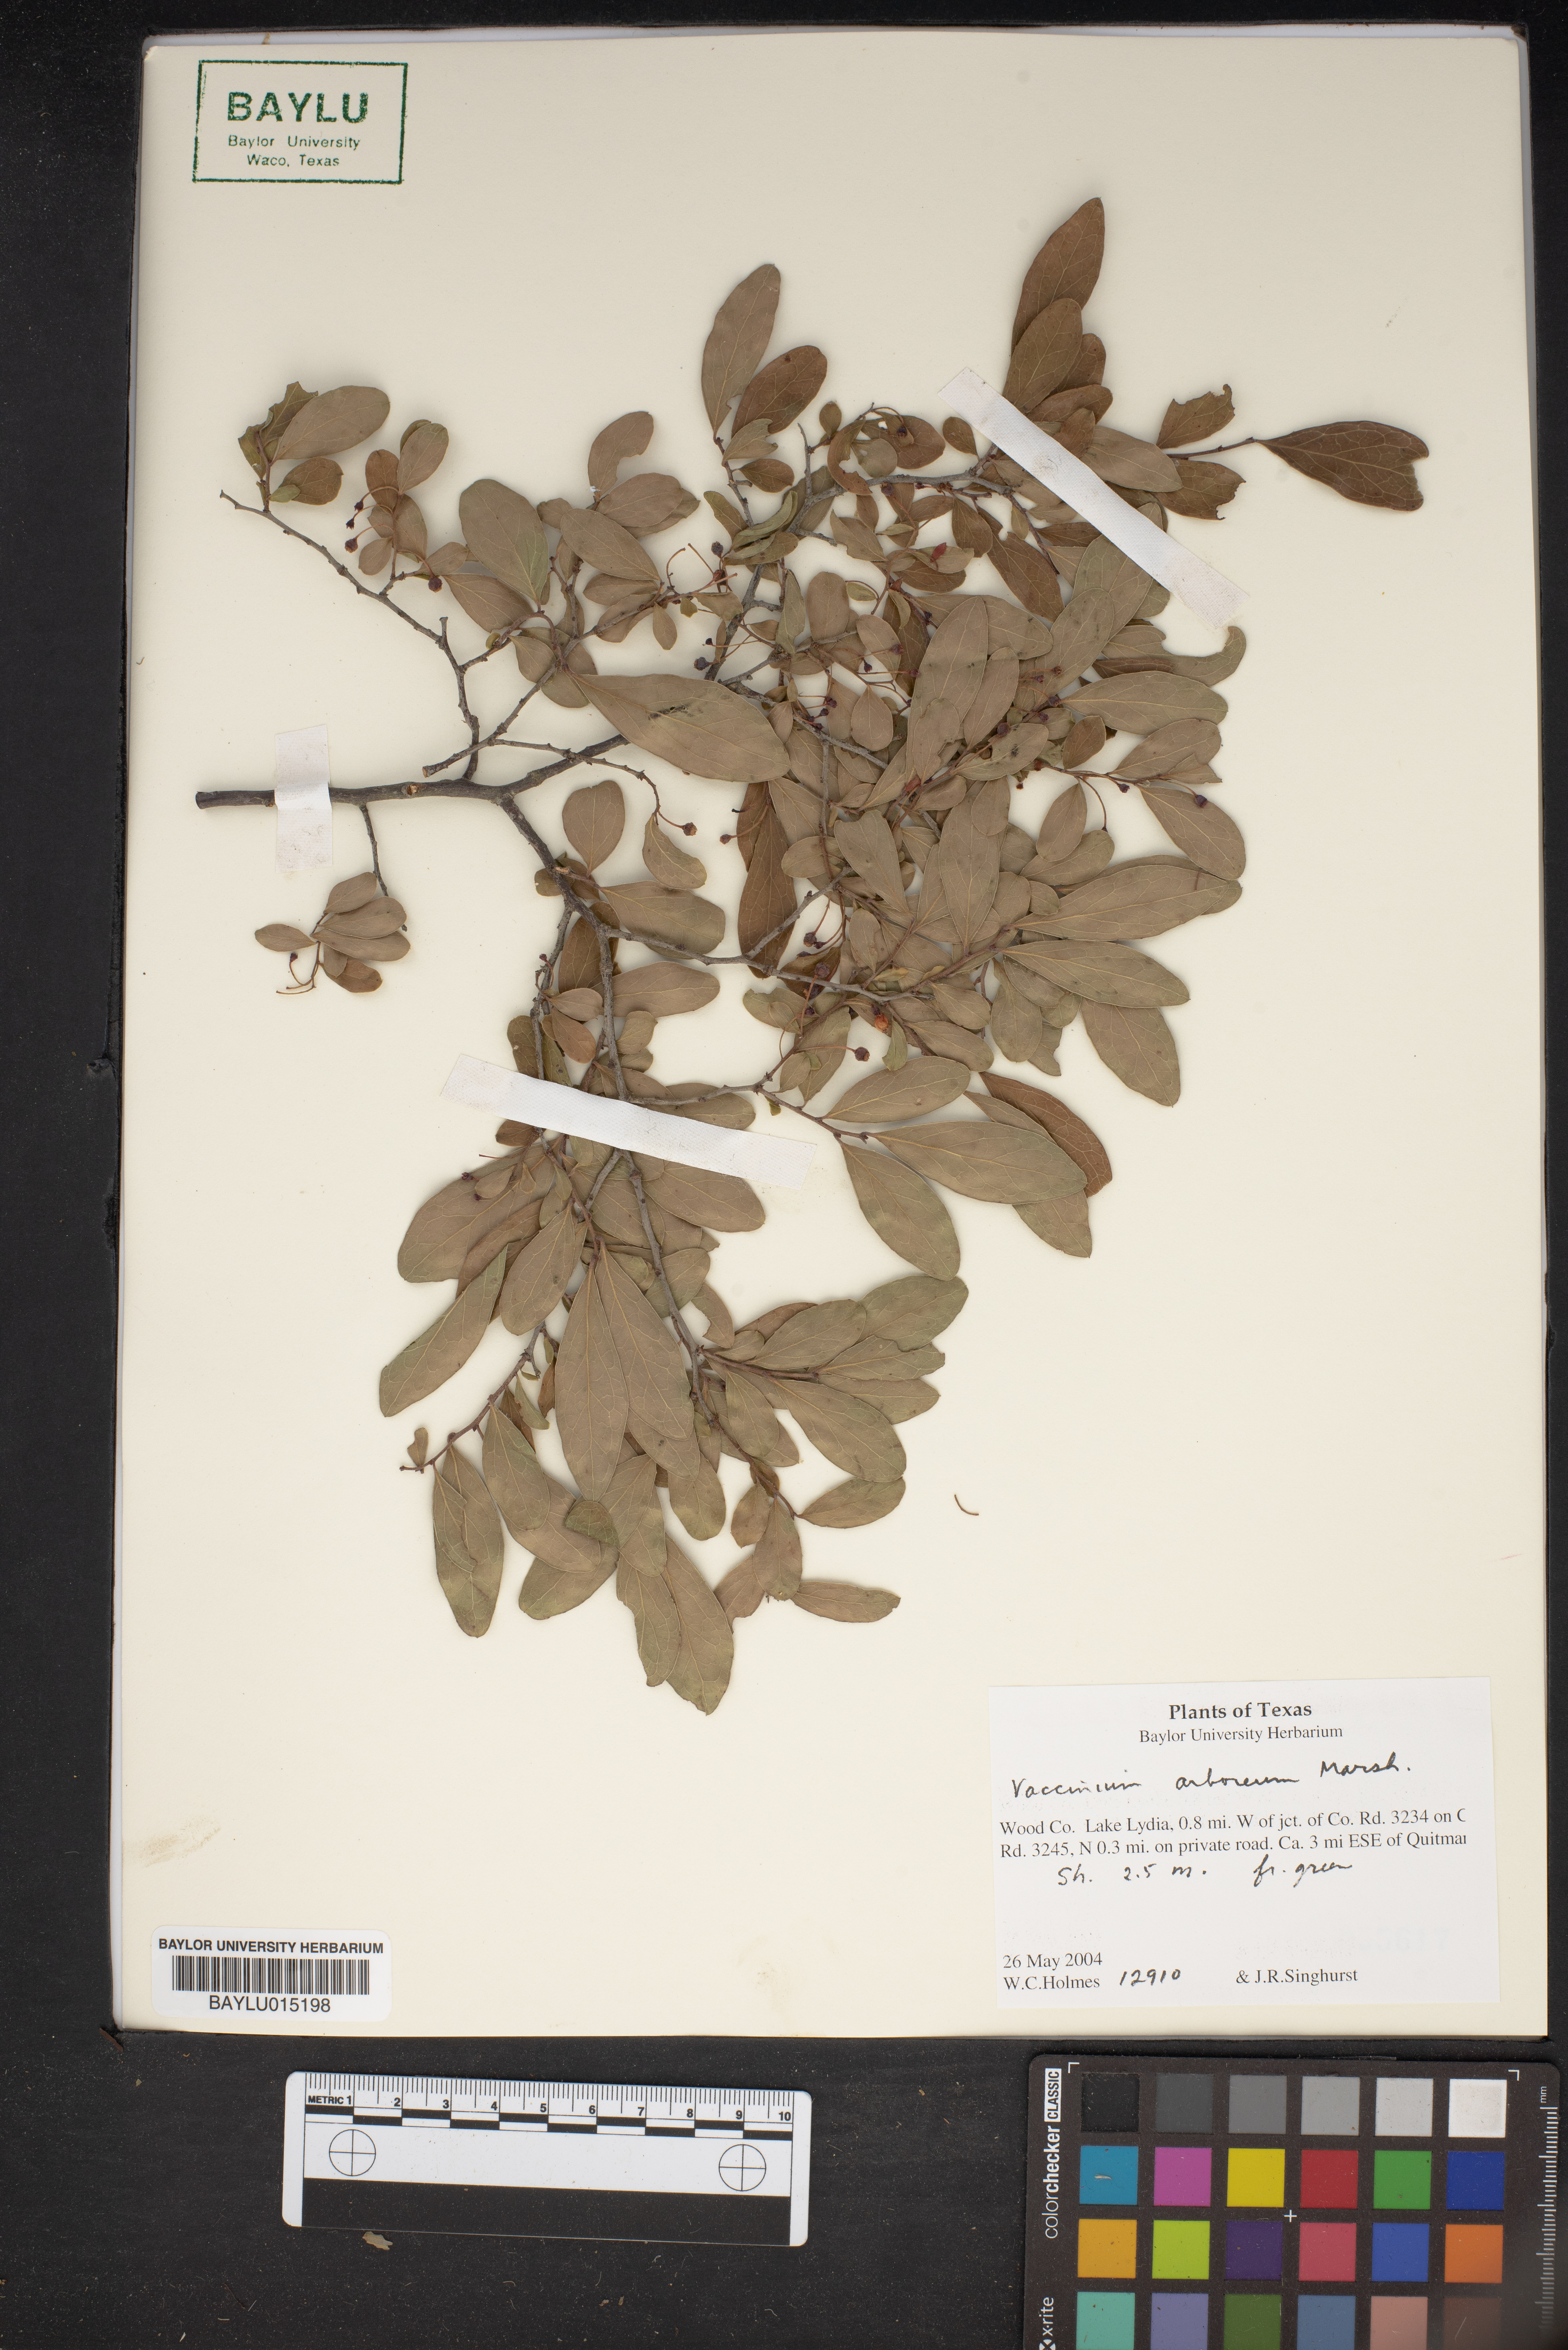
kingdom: Plantae
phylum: Tracheophyta
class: Magnoliopsida
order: Ericales
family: Ericaceae
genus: Vaccinium
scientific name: Vaccinium arboreum
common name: Farkleberry
